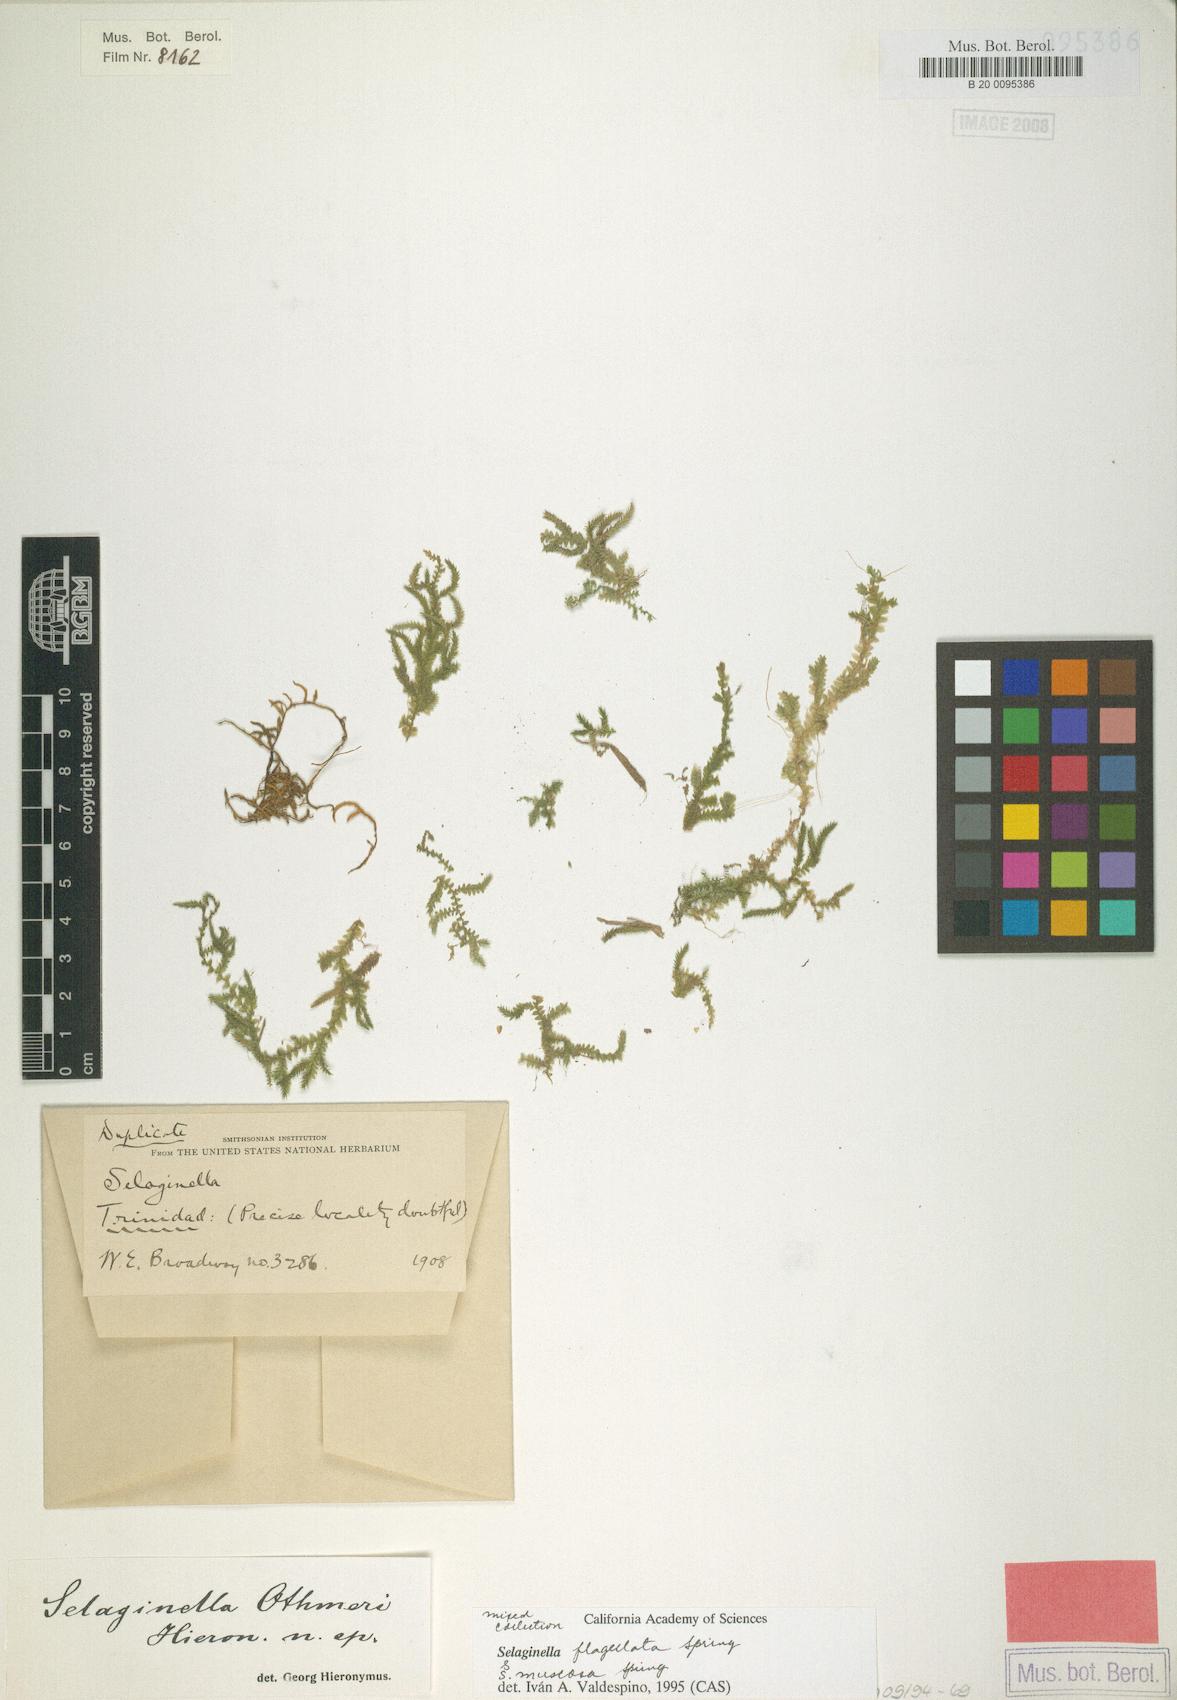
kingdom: Plantae
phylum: Tracheophyta
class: Lycopodiopsida
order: Selaginellales
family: Selaginellaceae
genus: Selaginella
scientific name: Selaginella flagellata
